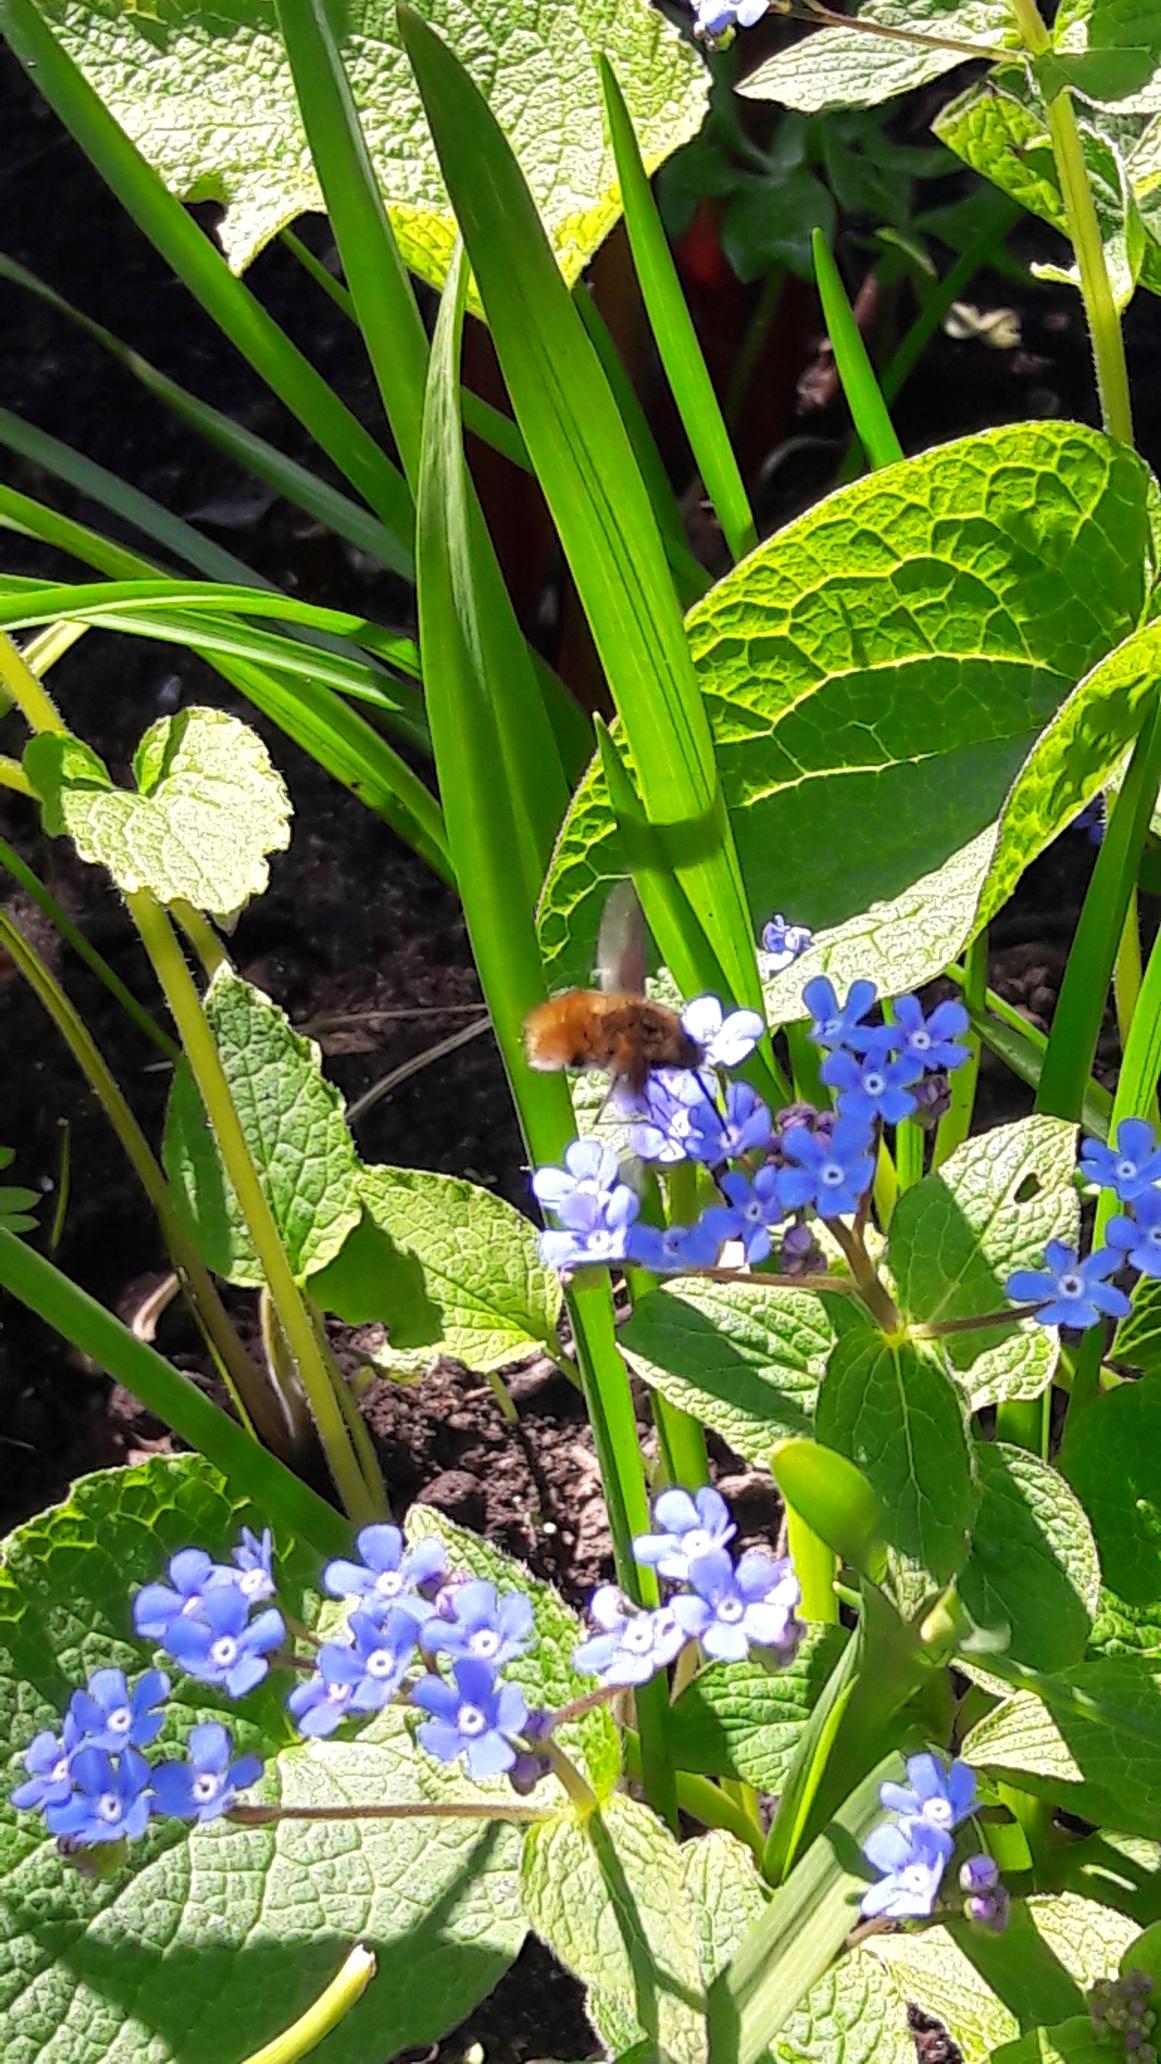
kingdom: Animalia
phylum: Arthropoda
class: Insecta
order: Diptera
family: Bombyliidae
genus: Bombylius
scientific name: Bombylius major
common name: Stor humleflue
